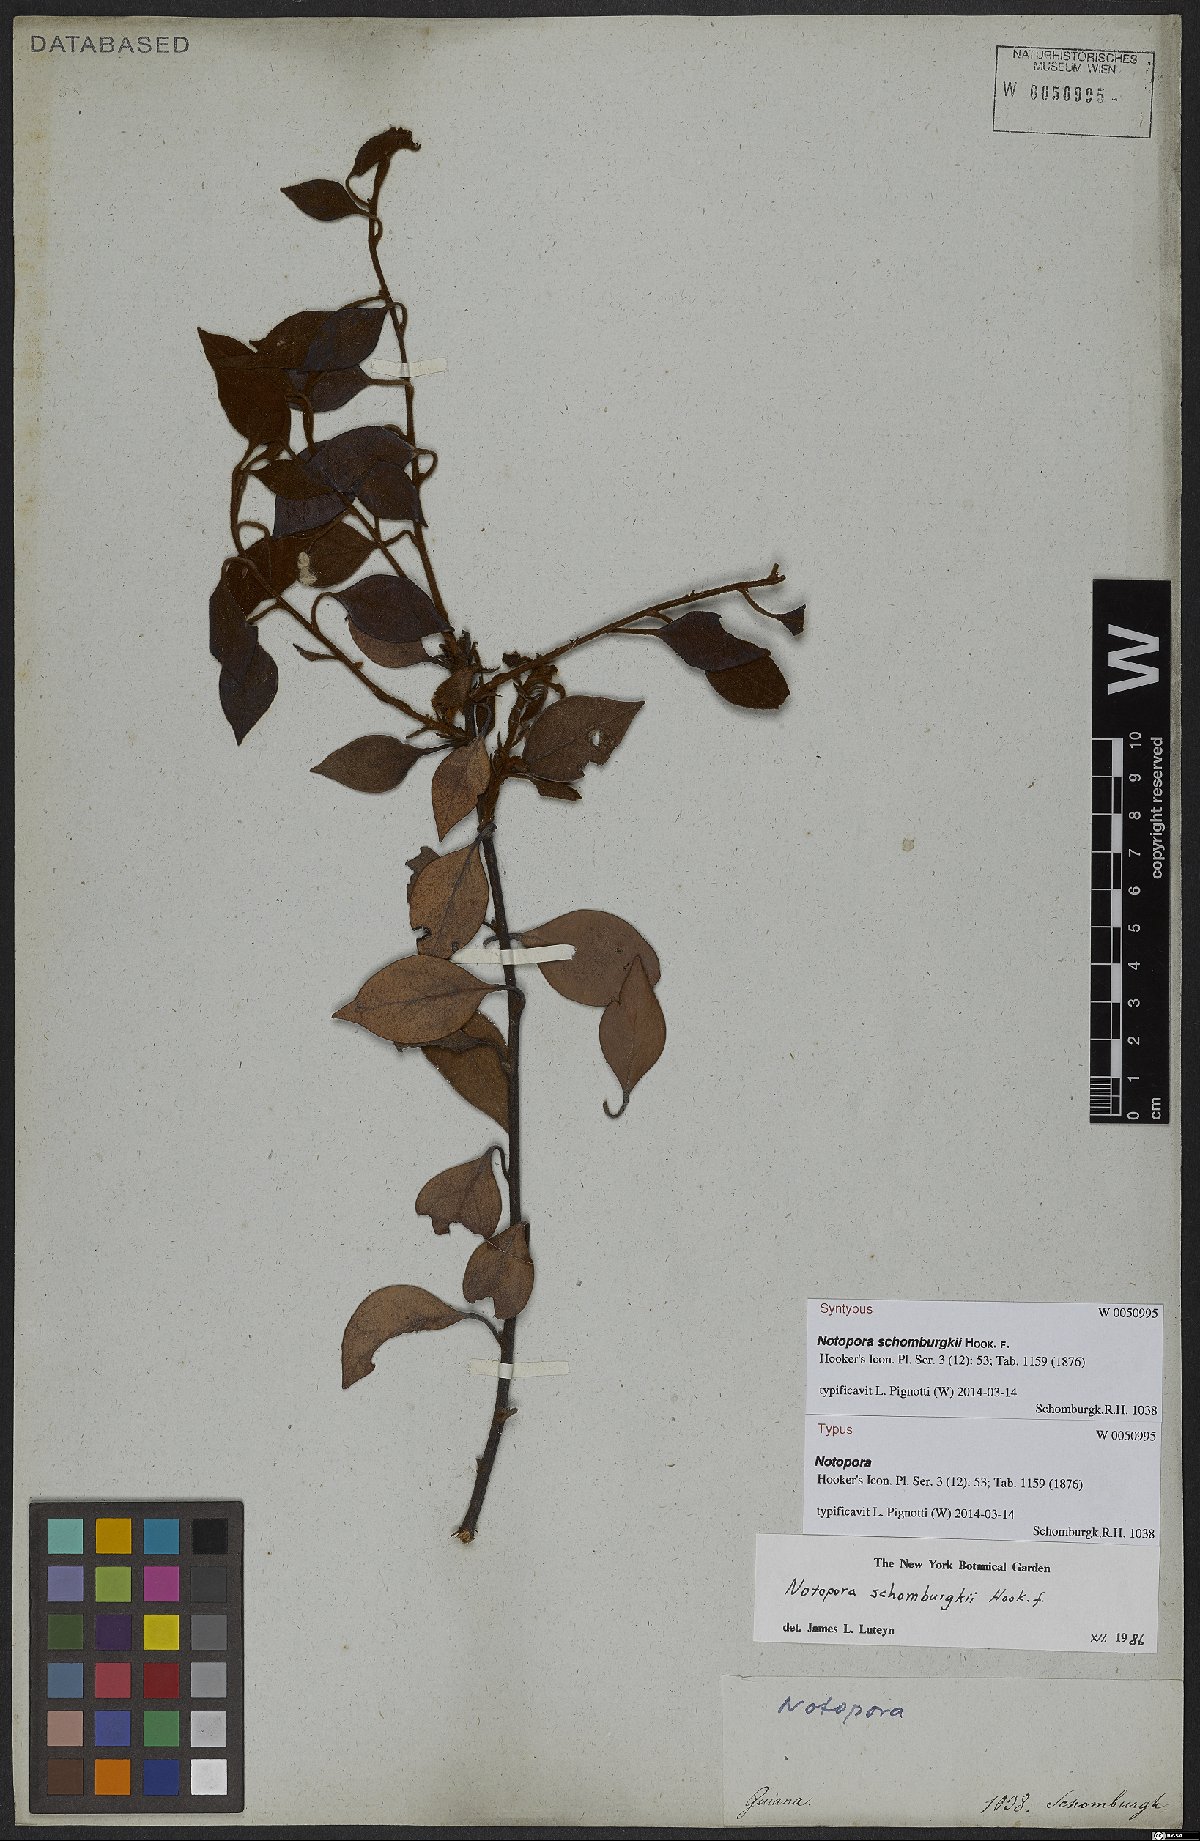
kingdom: Plantae
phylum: Tracheophyta
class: Magnoliopsida
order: Ericales
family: Ericaceae
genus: Notopora
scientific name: Notopora schomburgkii
